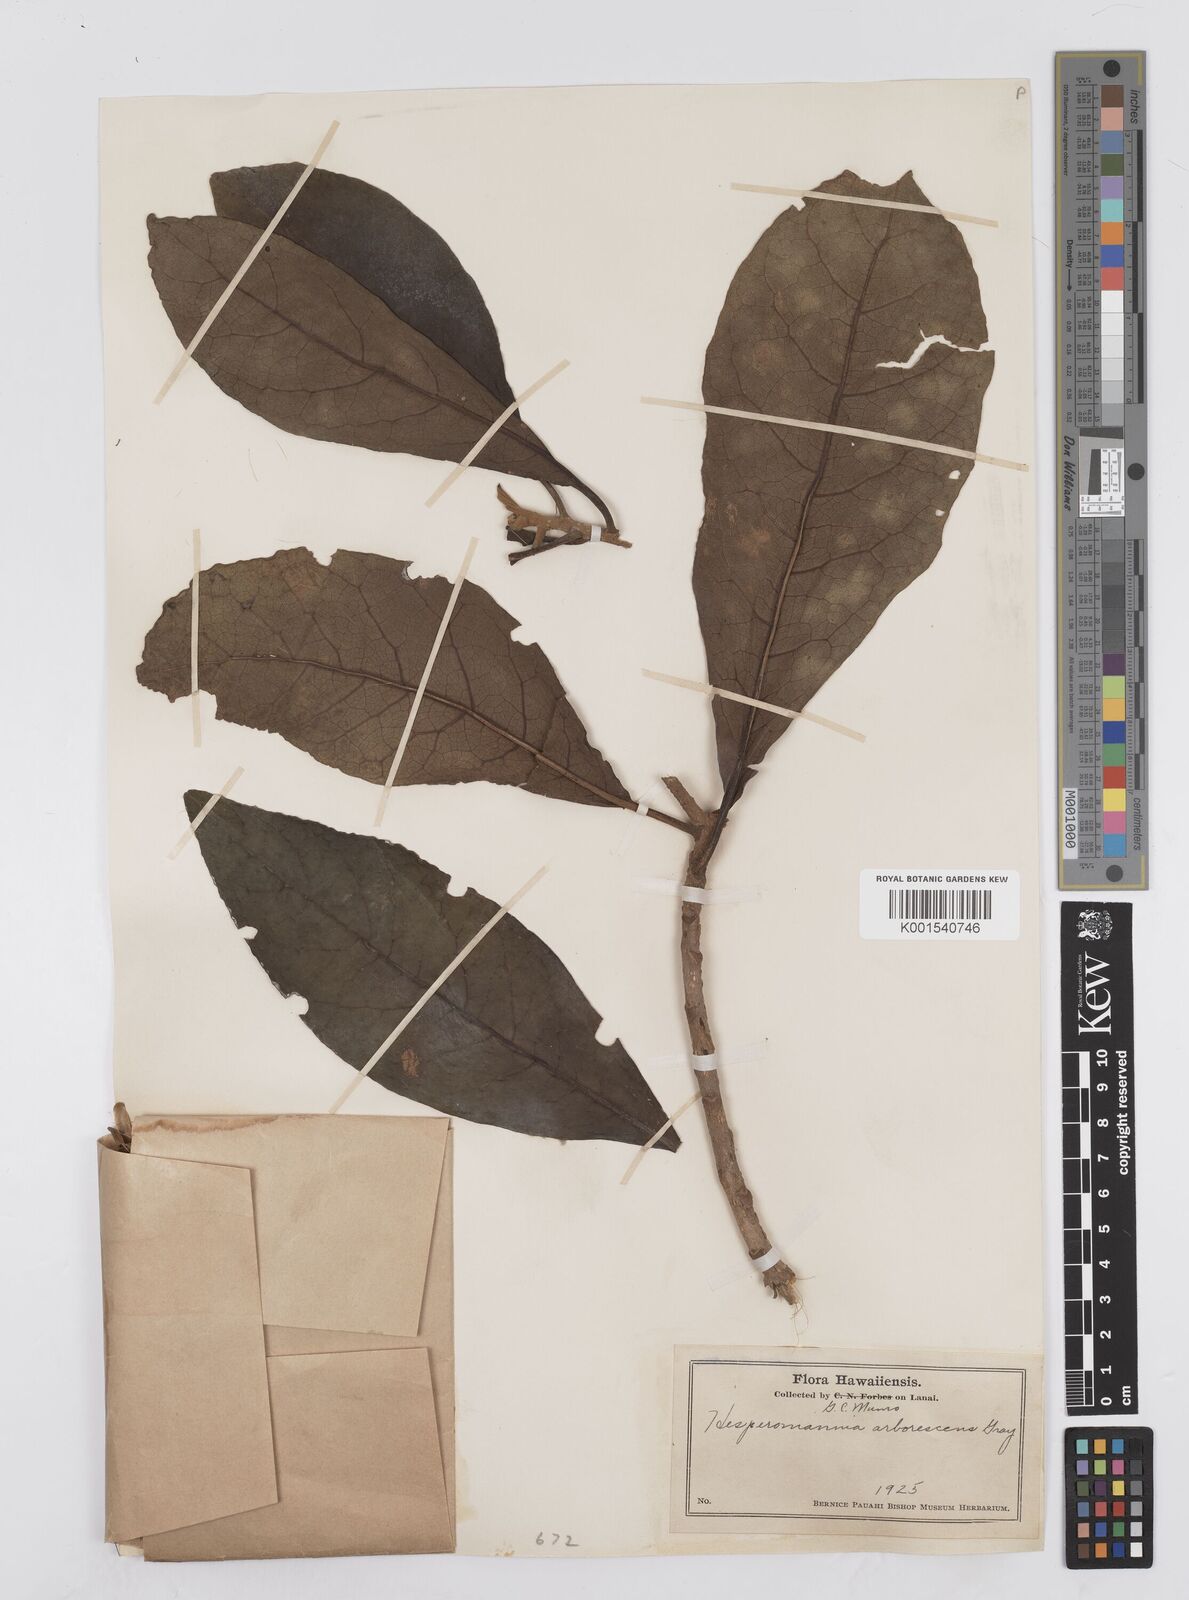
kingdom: Plantae
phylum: Tracheophyta
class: Magnoliopsida
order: Asterales
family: Asteraceae
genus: Hesperomannia
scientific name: Hesperomannia
